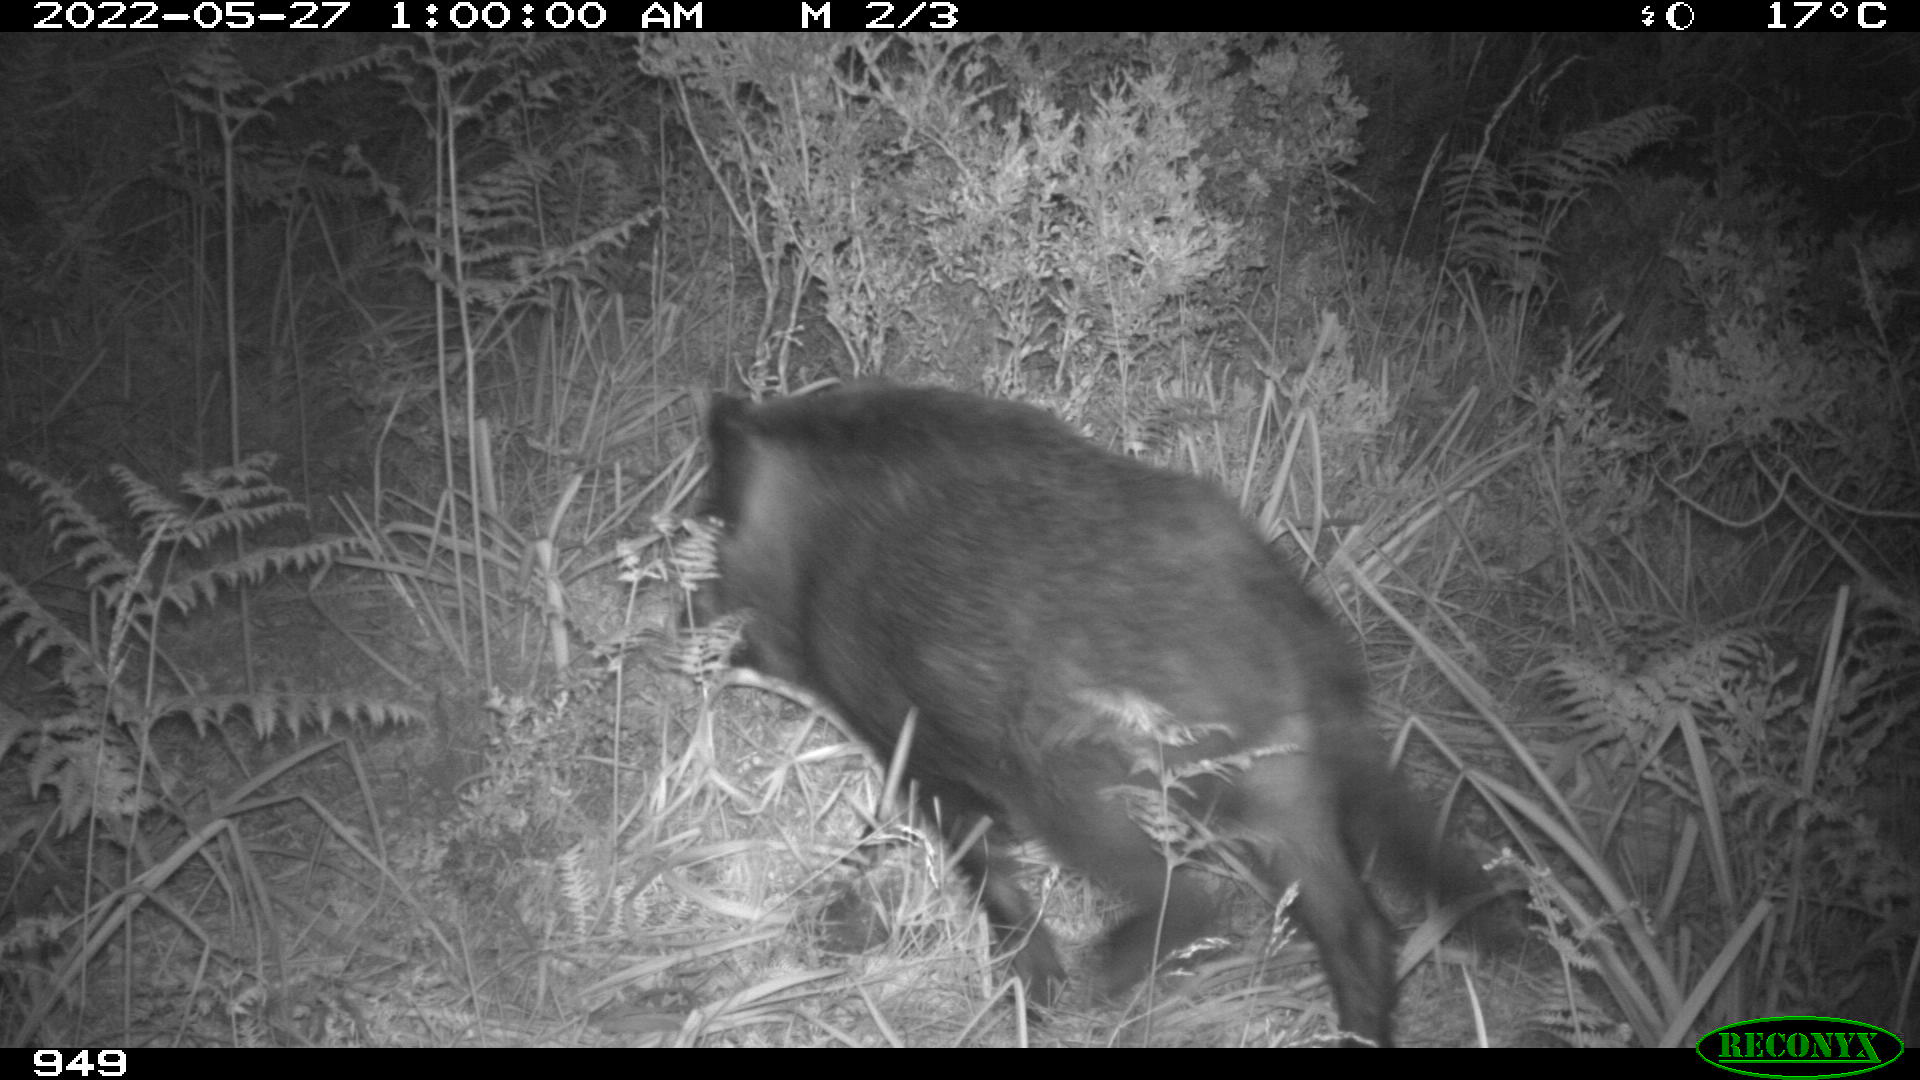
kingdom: Animalia
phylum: Chordata
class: Mammalia
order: Artiodactyla
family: Suidae
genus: Sus
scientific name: Sus scrofa
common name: Wild boar
